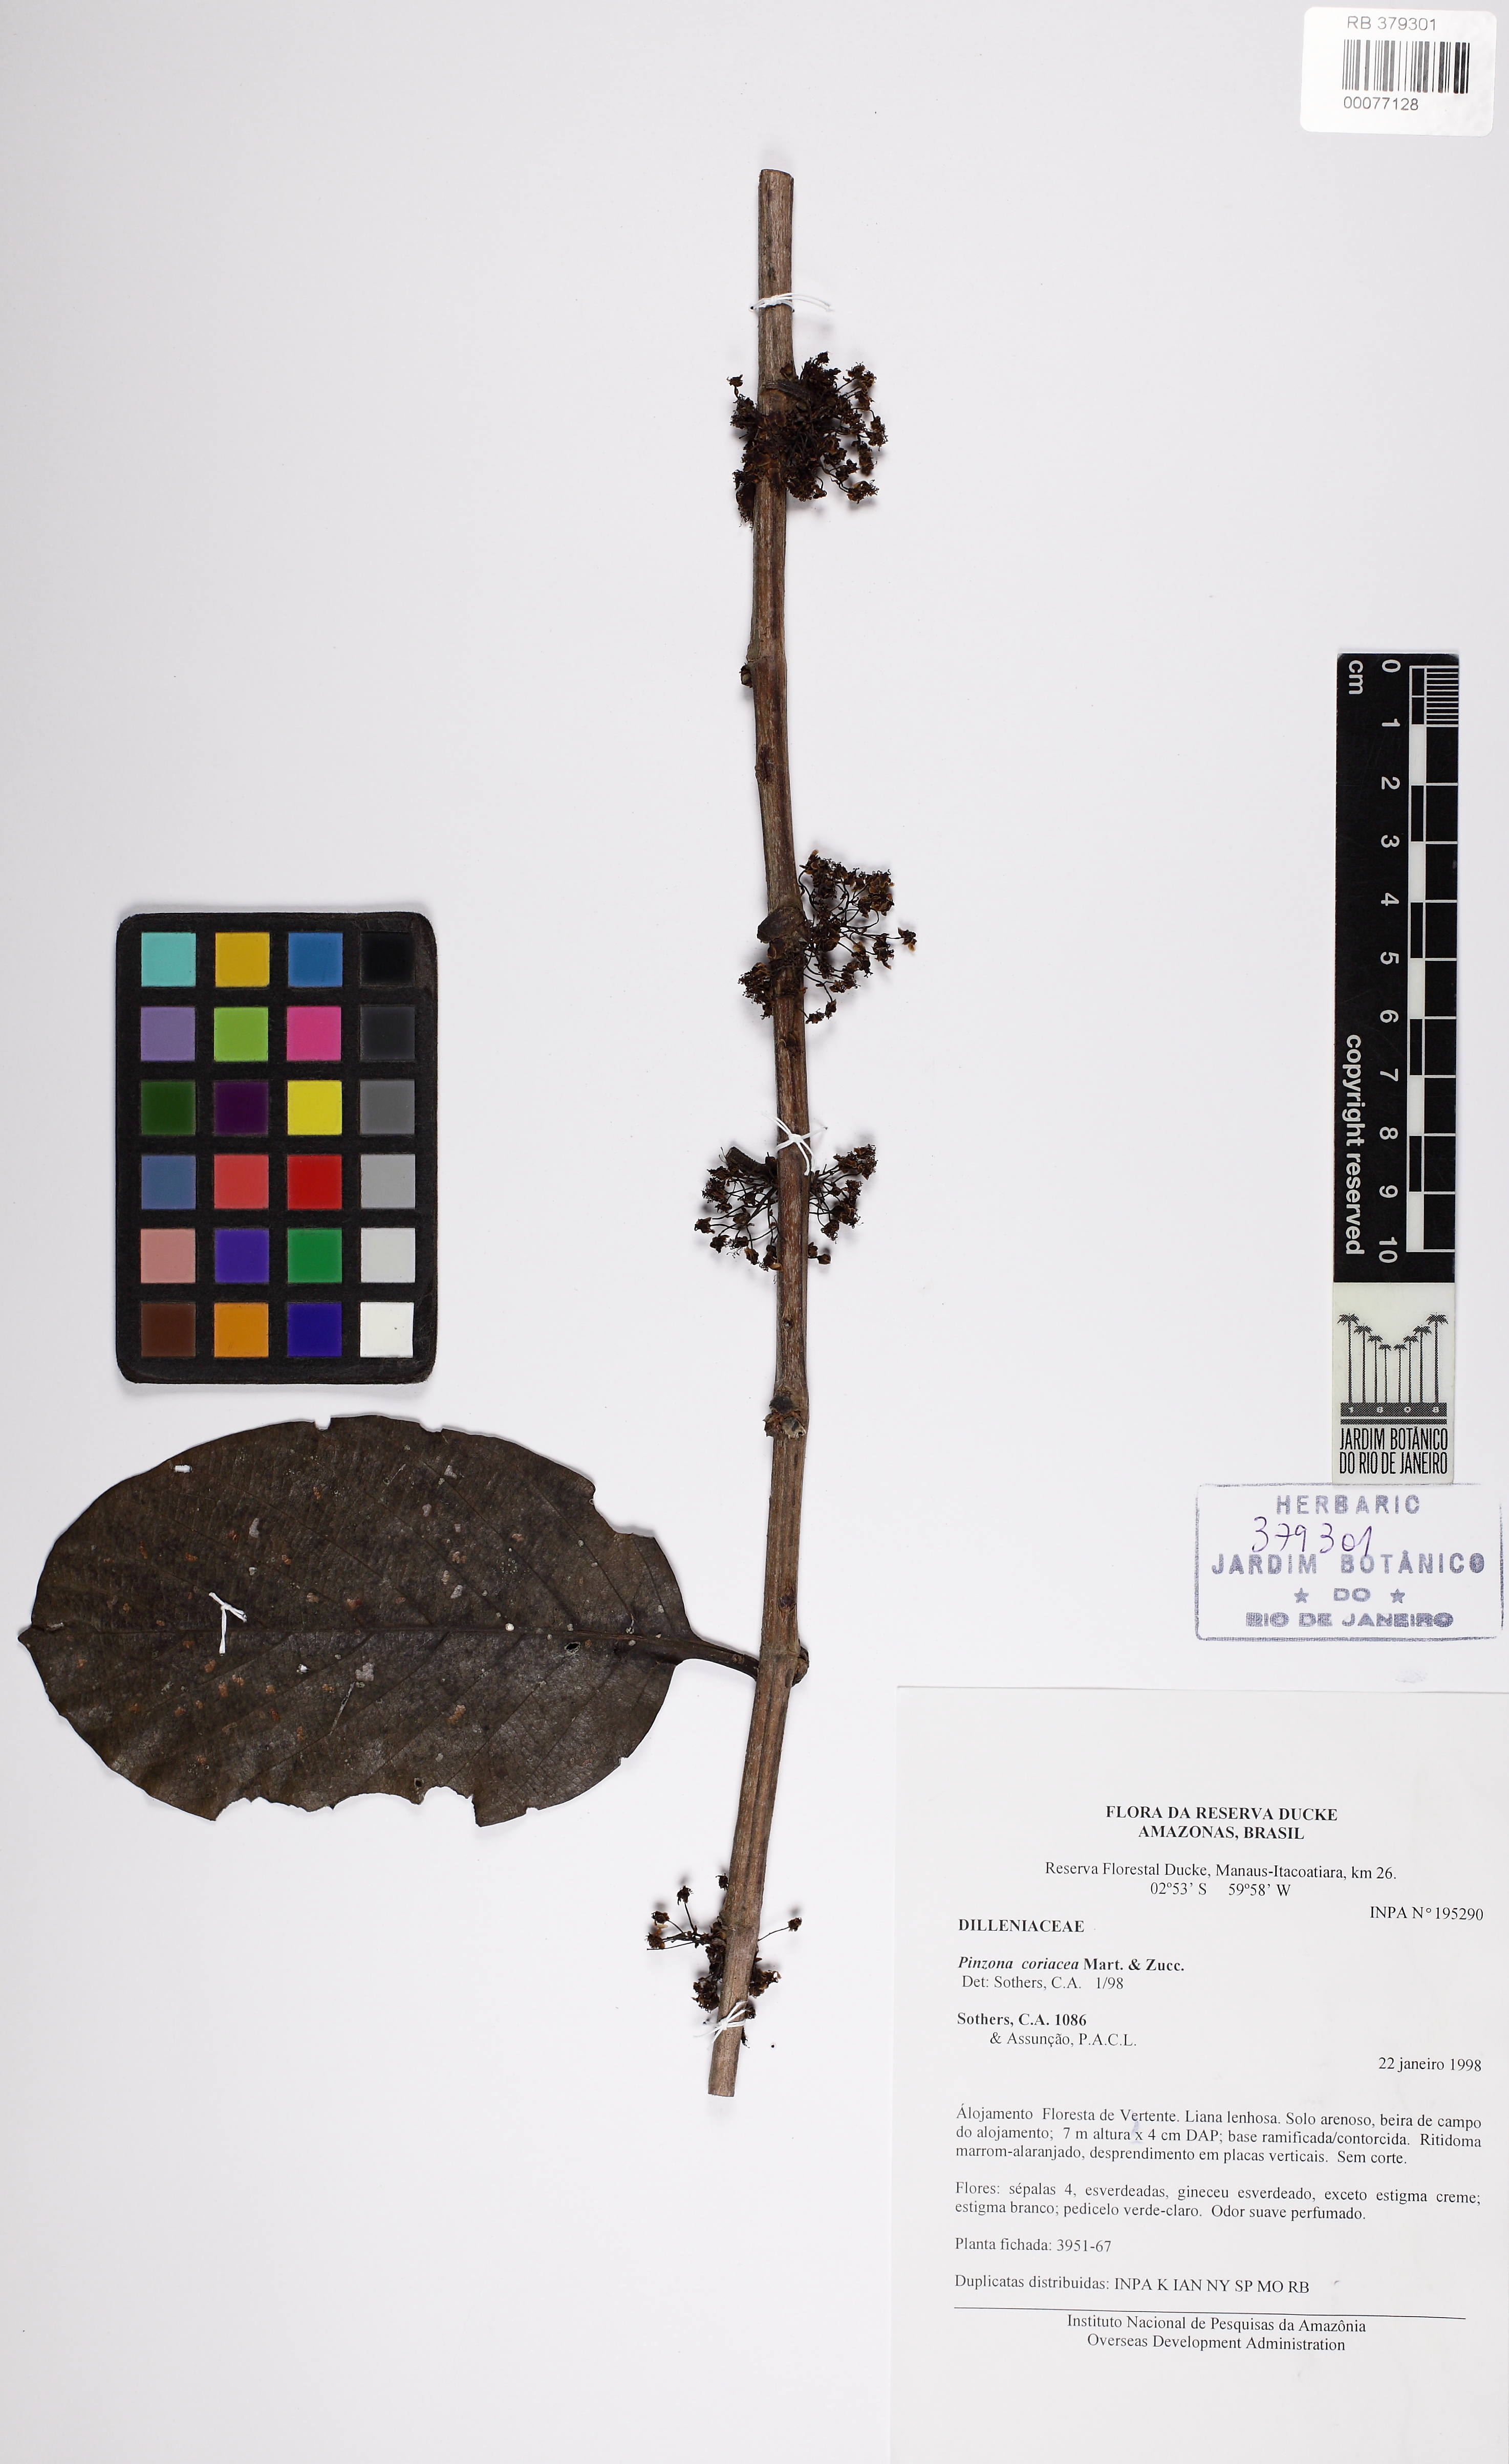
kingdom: Plantae
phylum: Tracheophyta
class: Magnoliopsida
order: Dilleniales
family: Dilleniaceae
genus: Pinzona
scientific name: Pinzona coriacea
